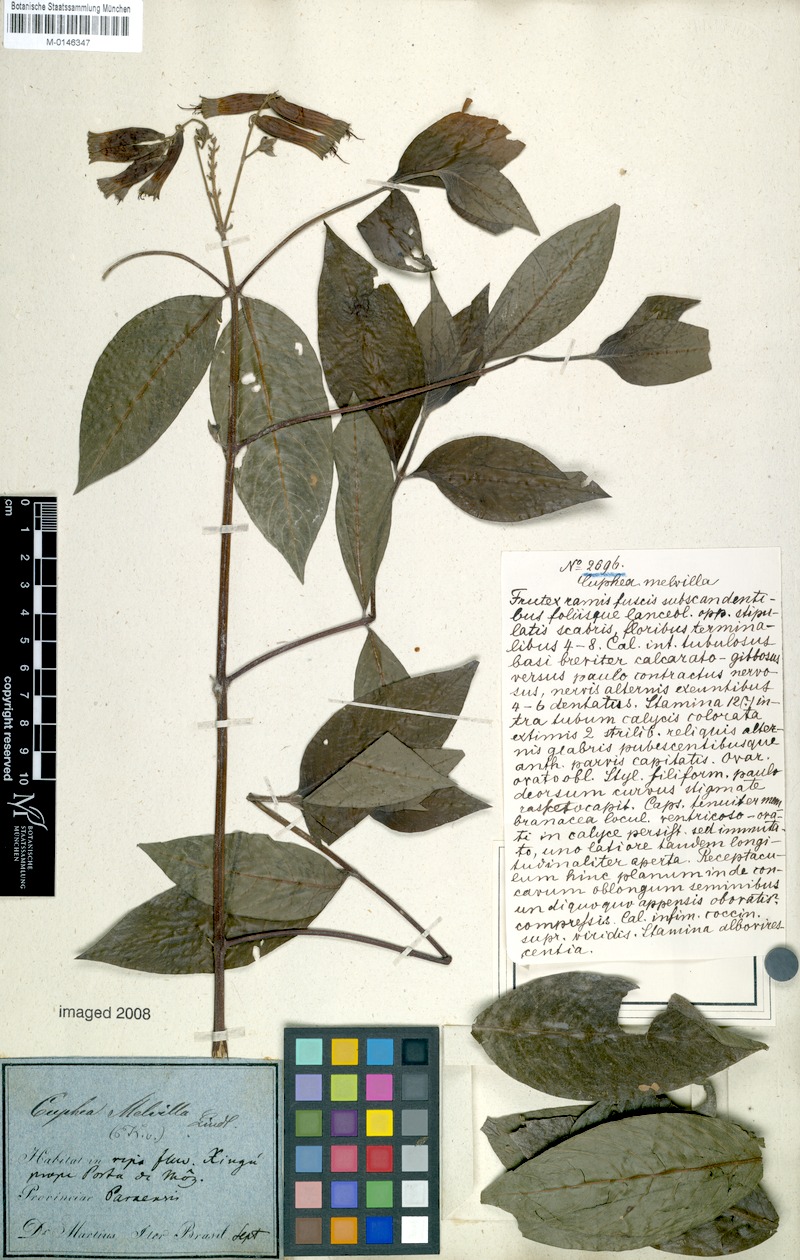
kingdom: Plantae
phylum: Tracheophyta
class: Magnoliopsida
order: Myrtales
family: Lythraceae
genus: Cuphea
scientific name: Cuphea melvilla
